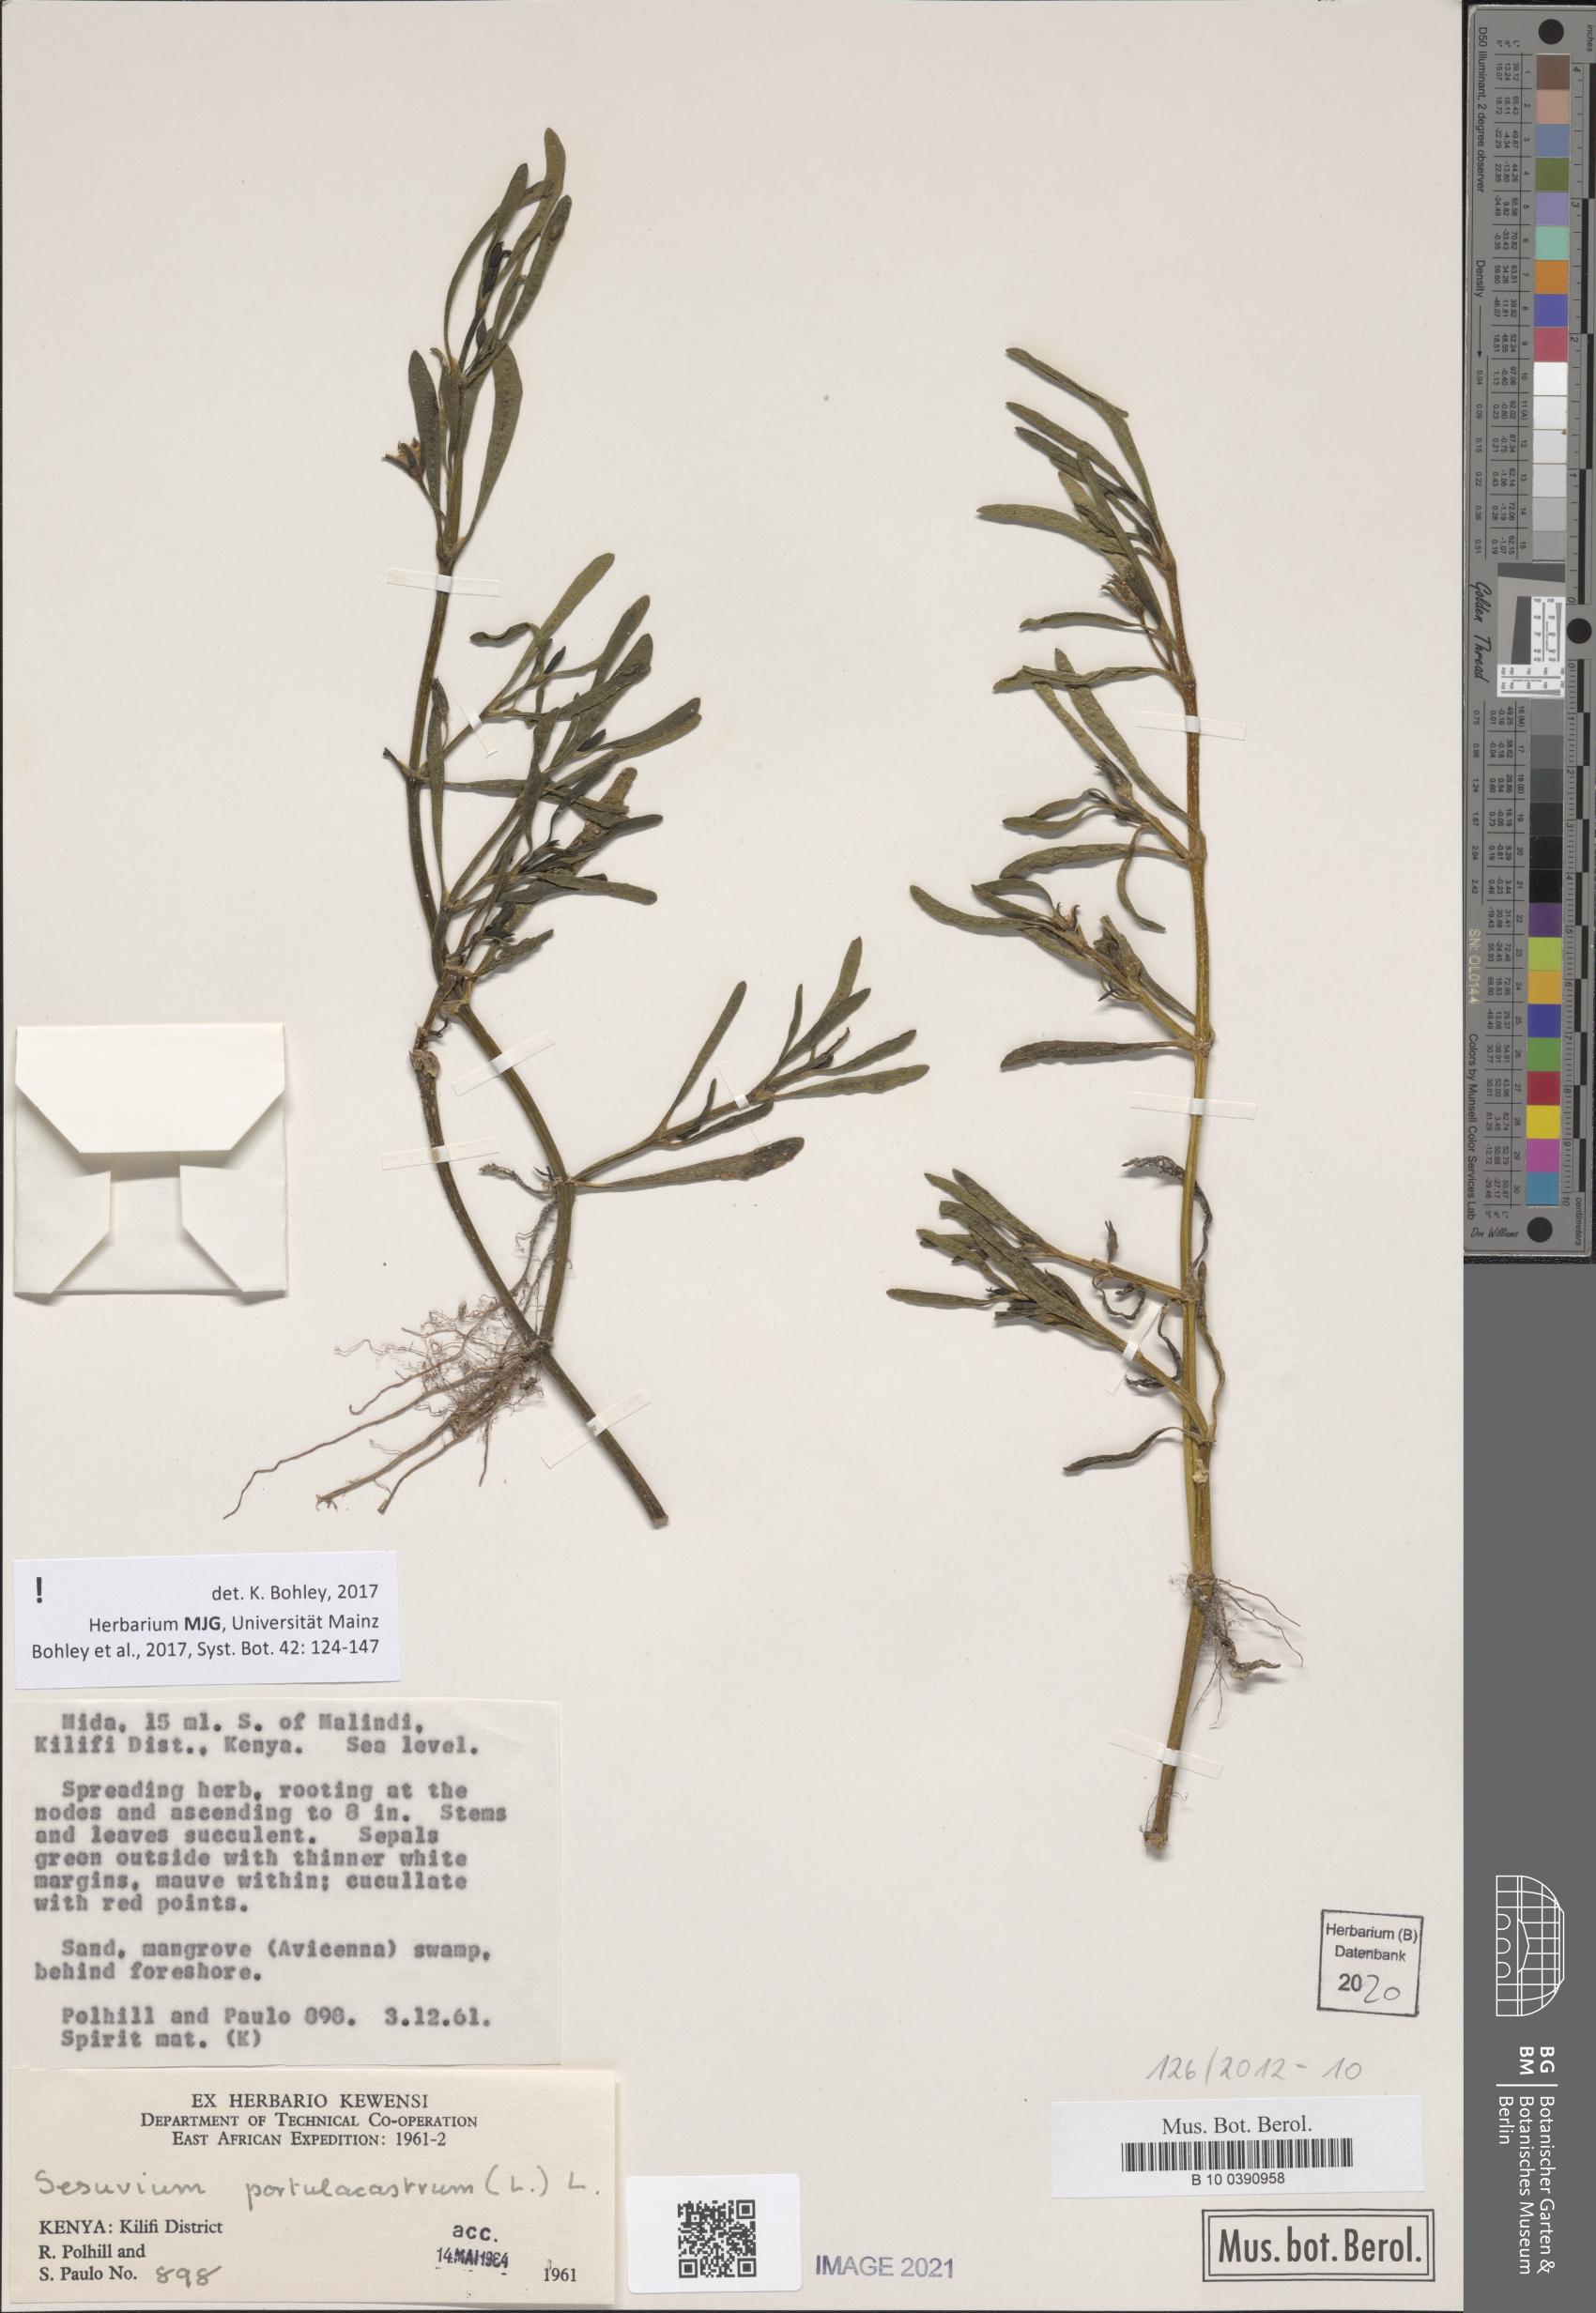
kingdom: Plantae
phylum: Tracheophyta
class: Magnoliopsida
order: Caryophyllales
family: Aizoaceae
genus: Sesuvium
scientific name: Sesuvium portulacastrum
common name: Sea-purslane
